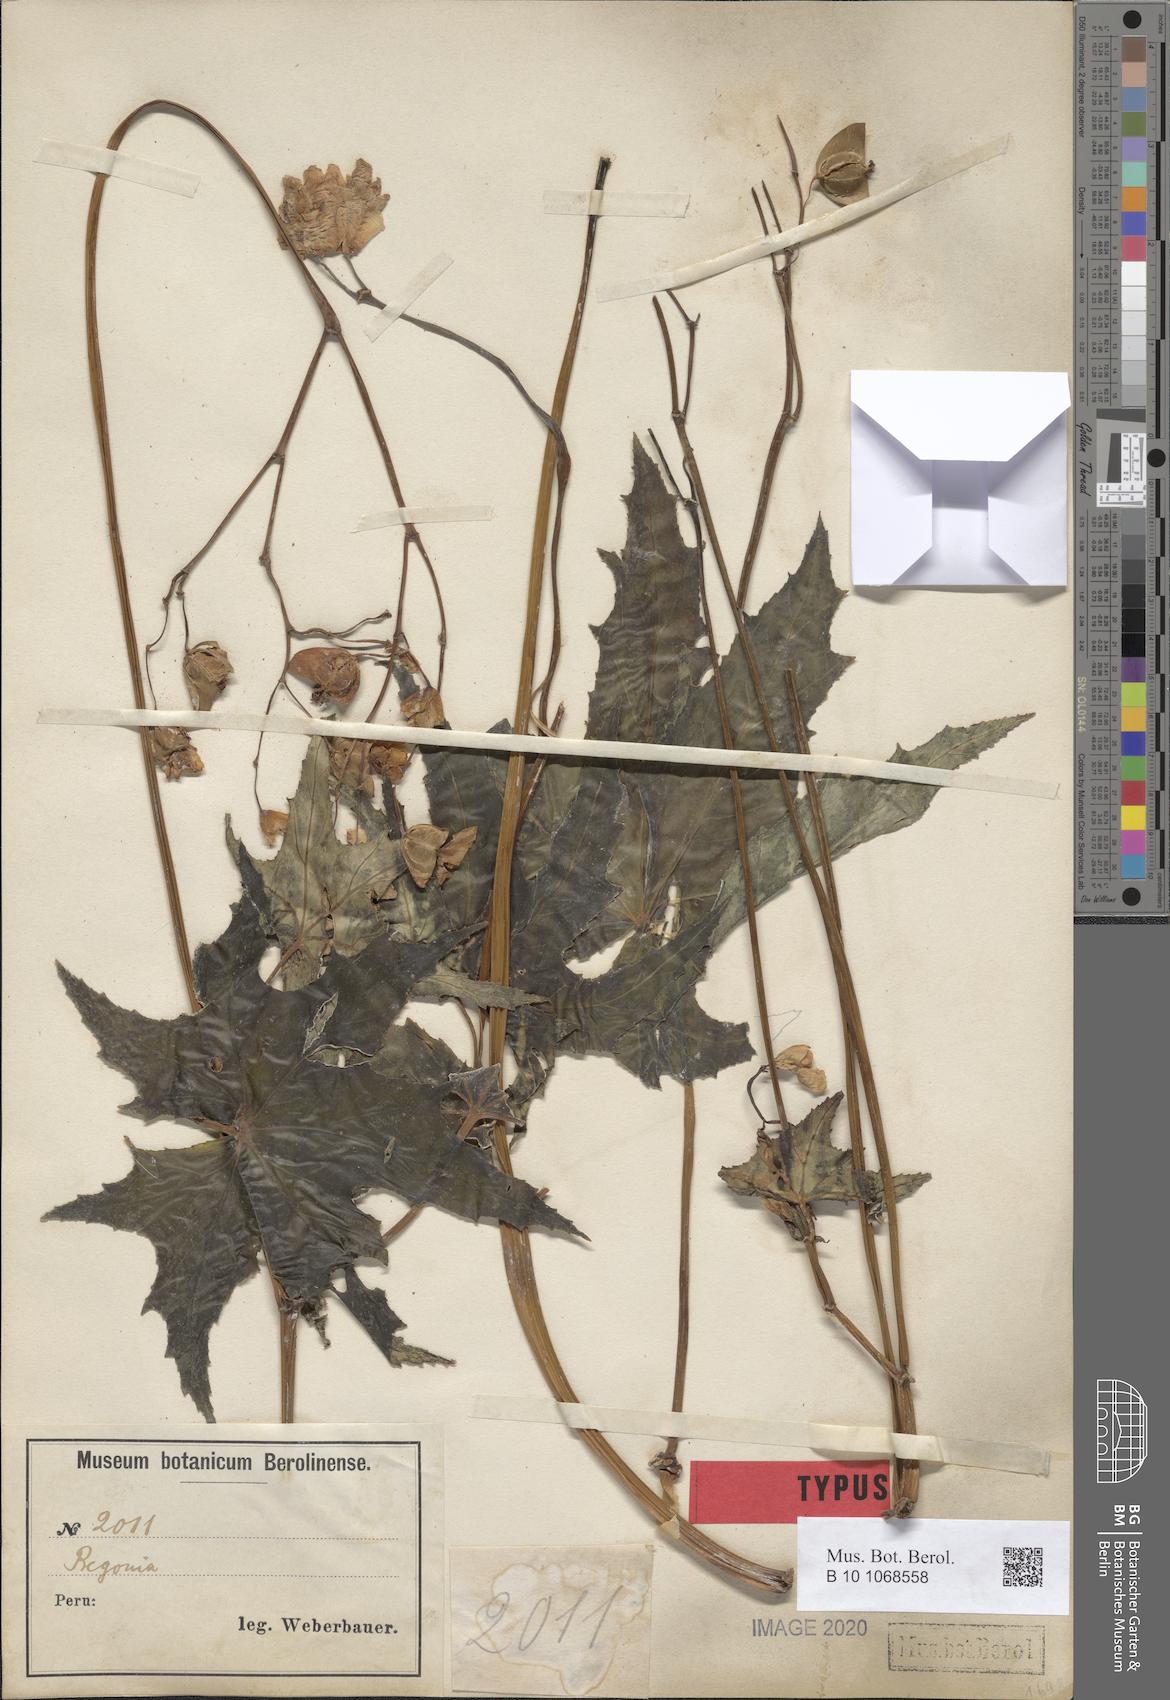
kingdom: Plantae
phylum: Tracheophyta
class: Magnoliopsida
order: Cucurbitales
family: Begoniaceae
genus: Begonia
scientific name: Begonia acerifolia
